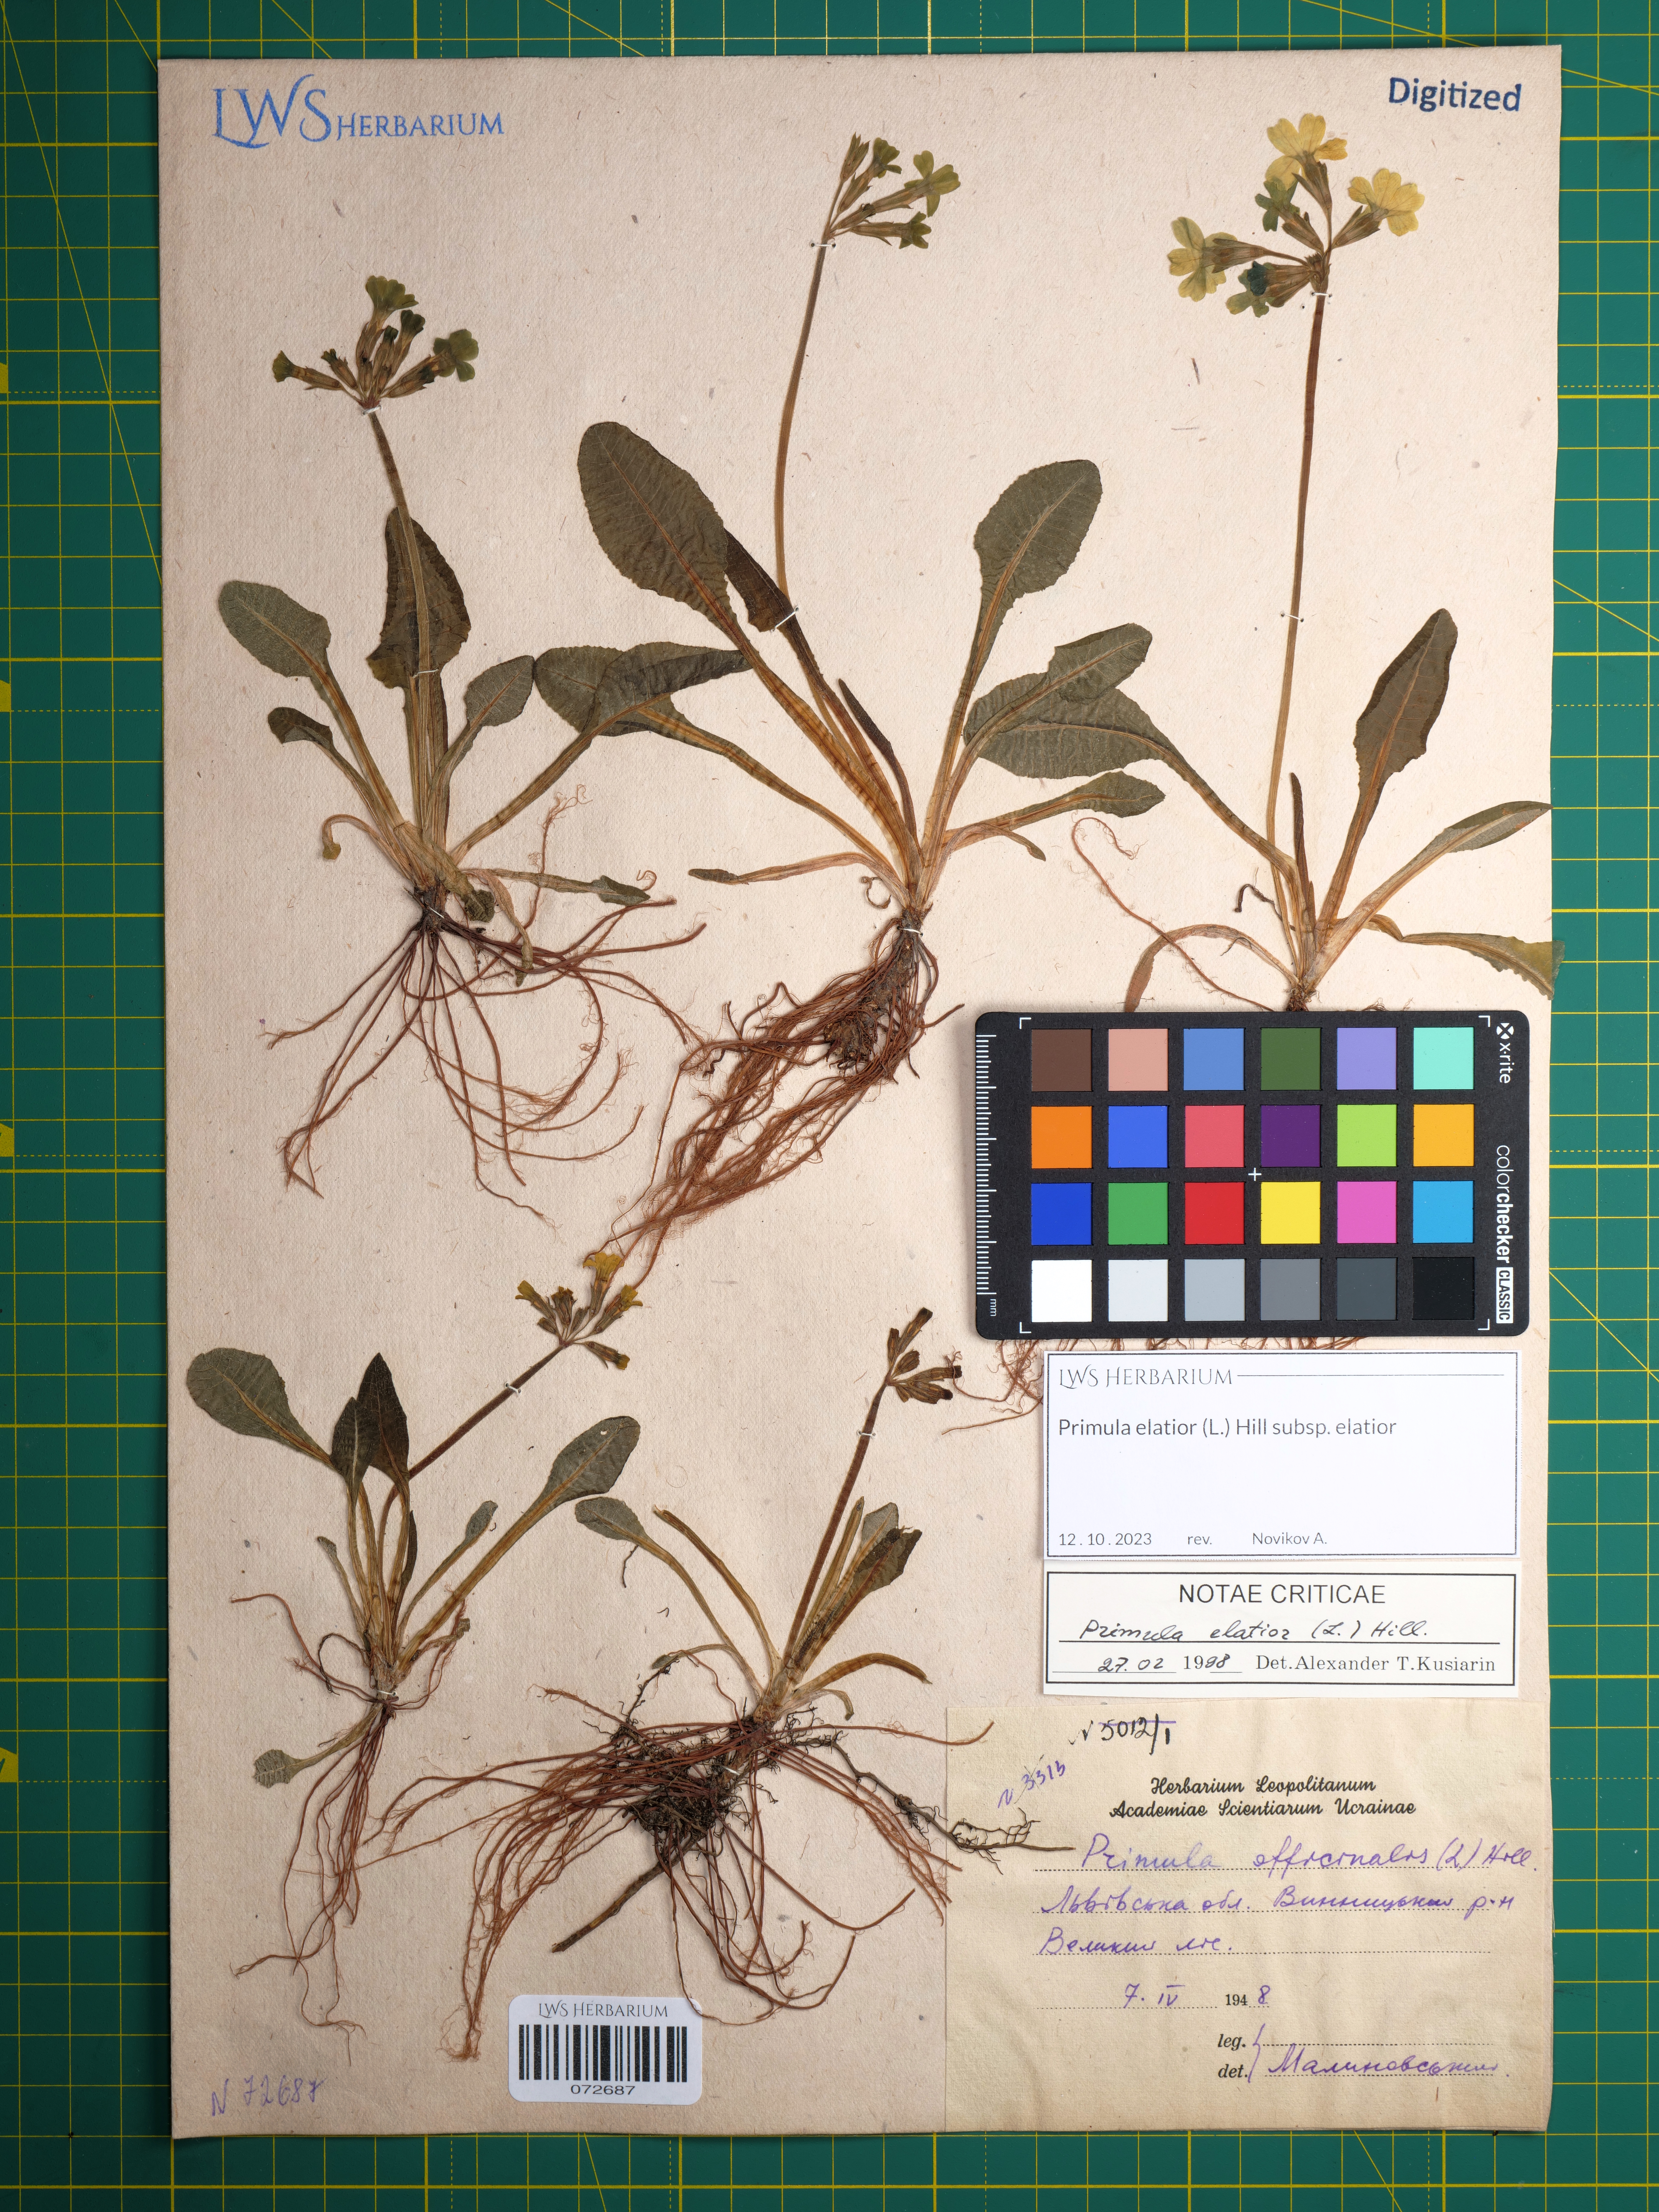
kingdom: Plantae
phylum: Tracheophyta
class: Magnoliopsida
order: Ericales
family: Primulaceae
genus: Primula
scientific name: Primula elatior
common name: Oxlip
